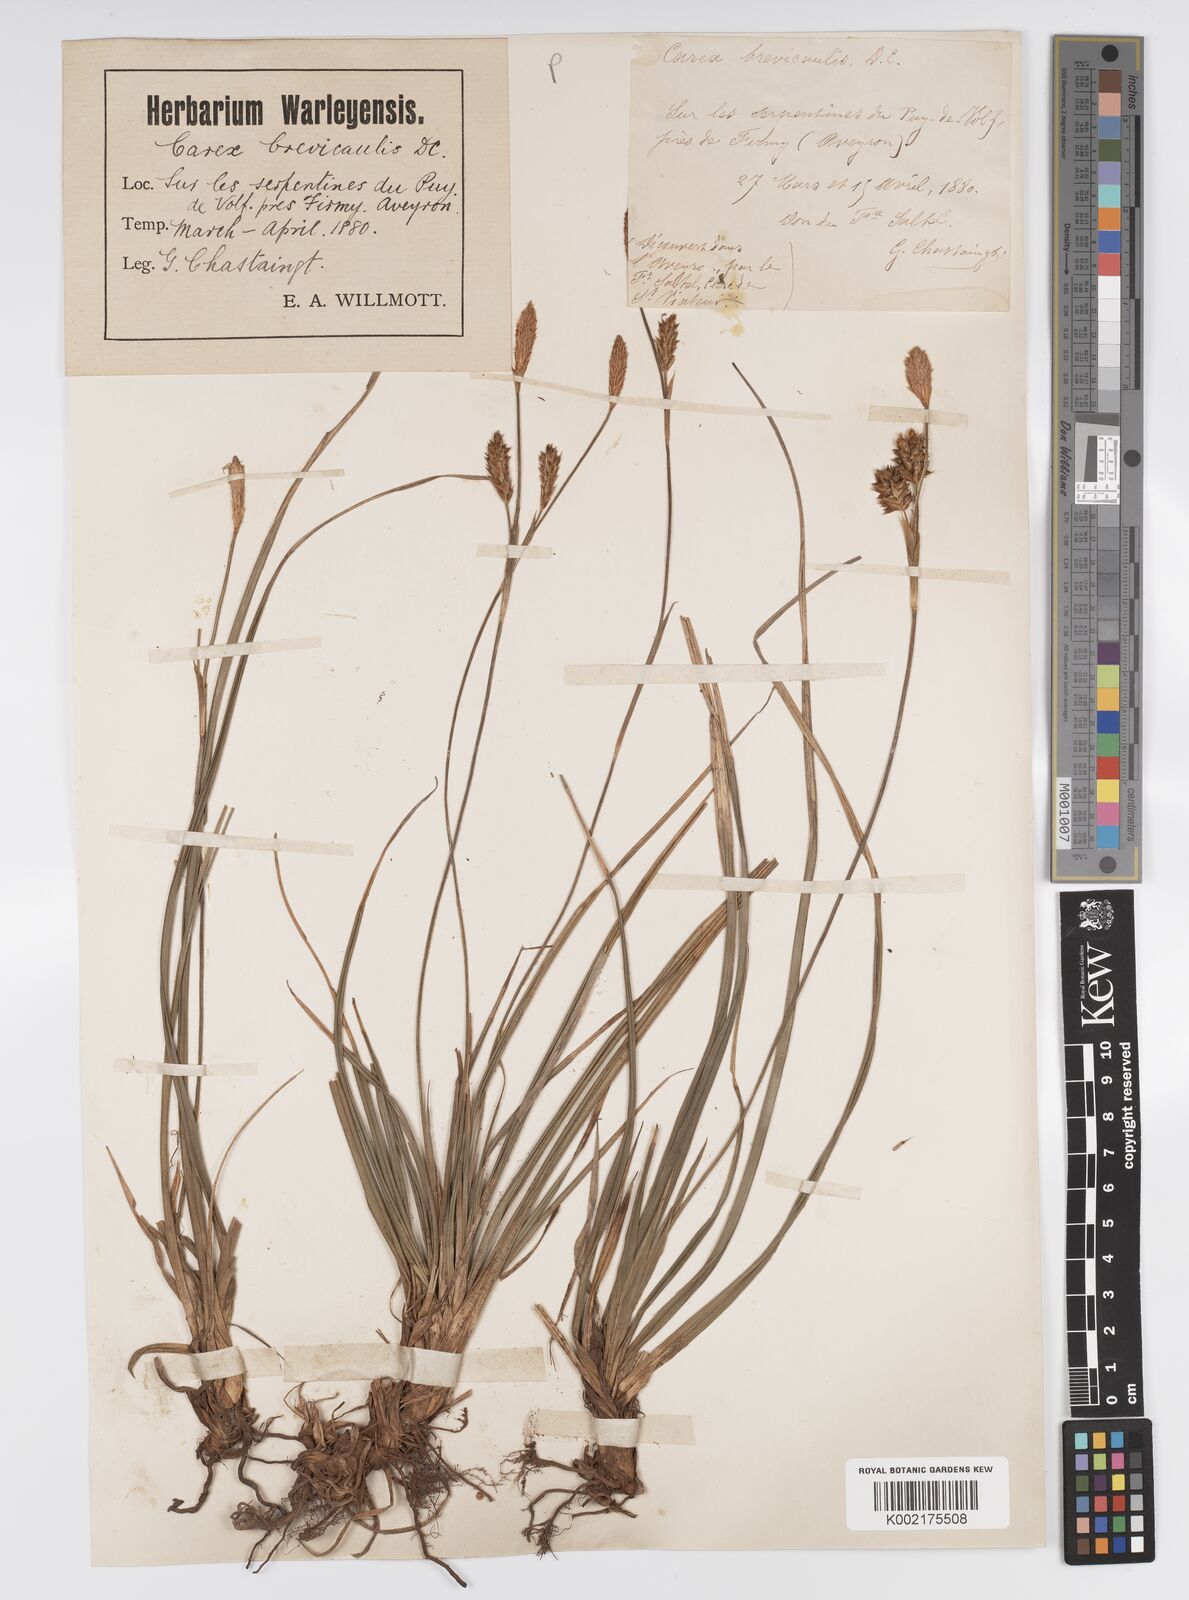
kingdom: Plantae
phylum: Tracheophyta
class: Liliopsida
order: Poales
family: Cyperaceae
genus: Carex
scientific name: Carex brevicollis
